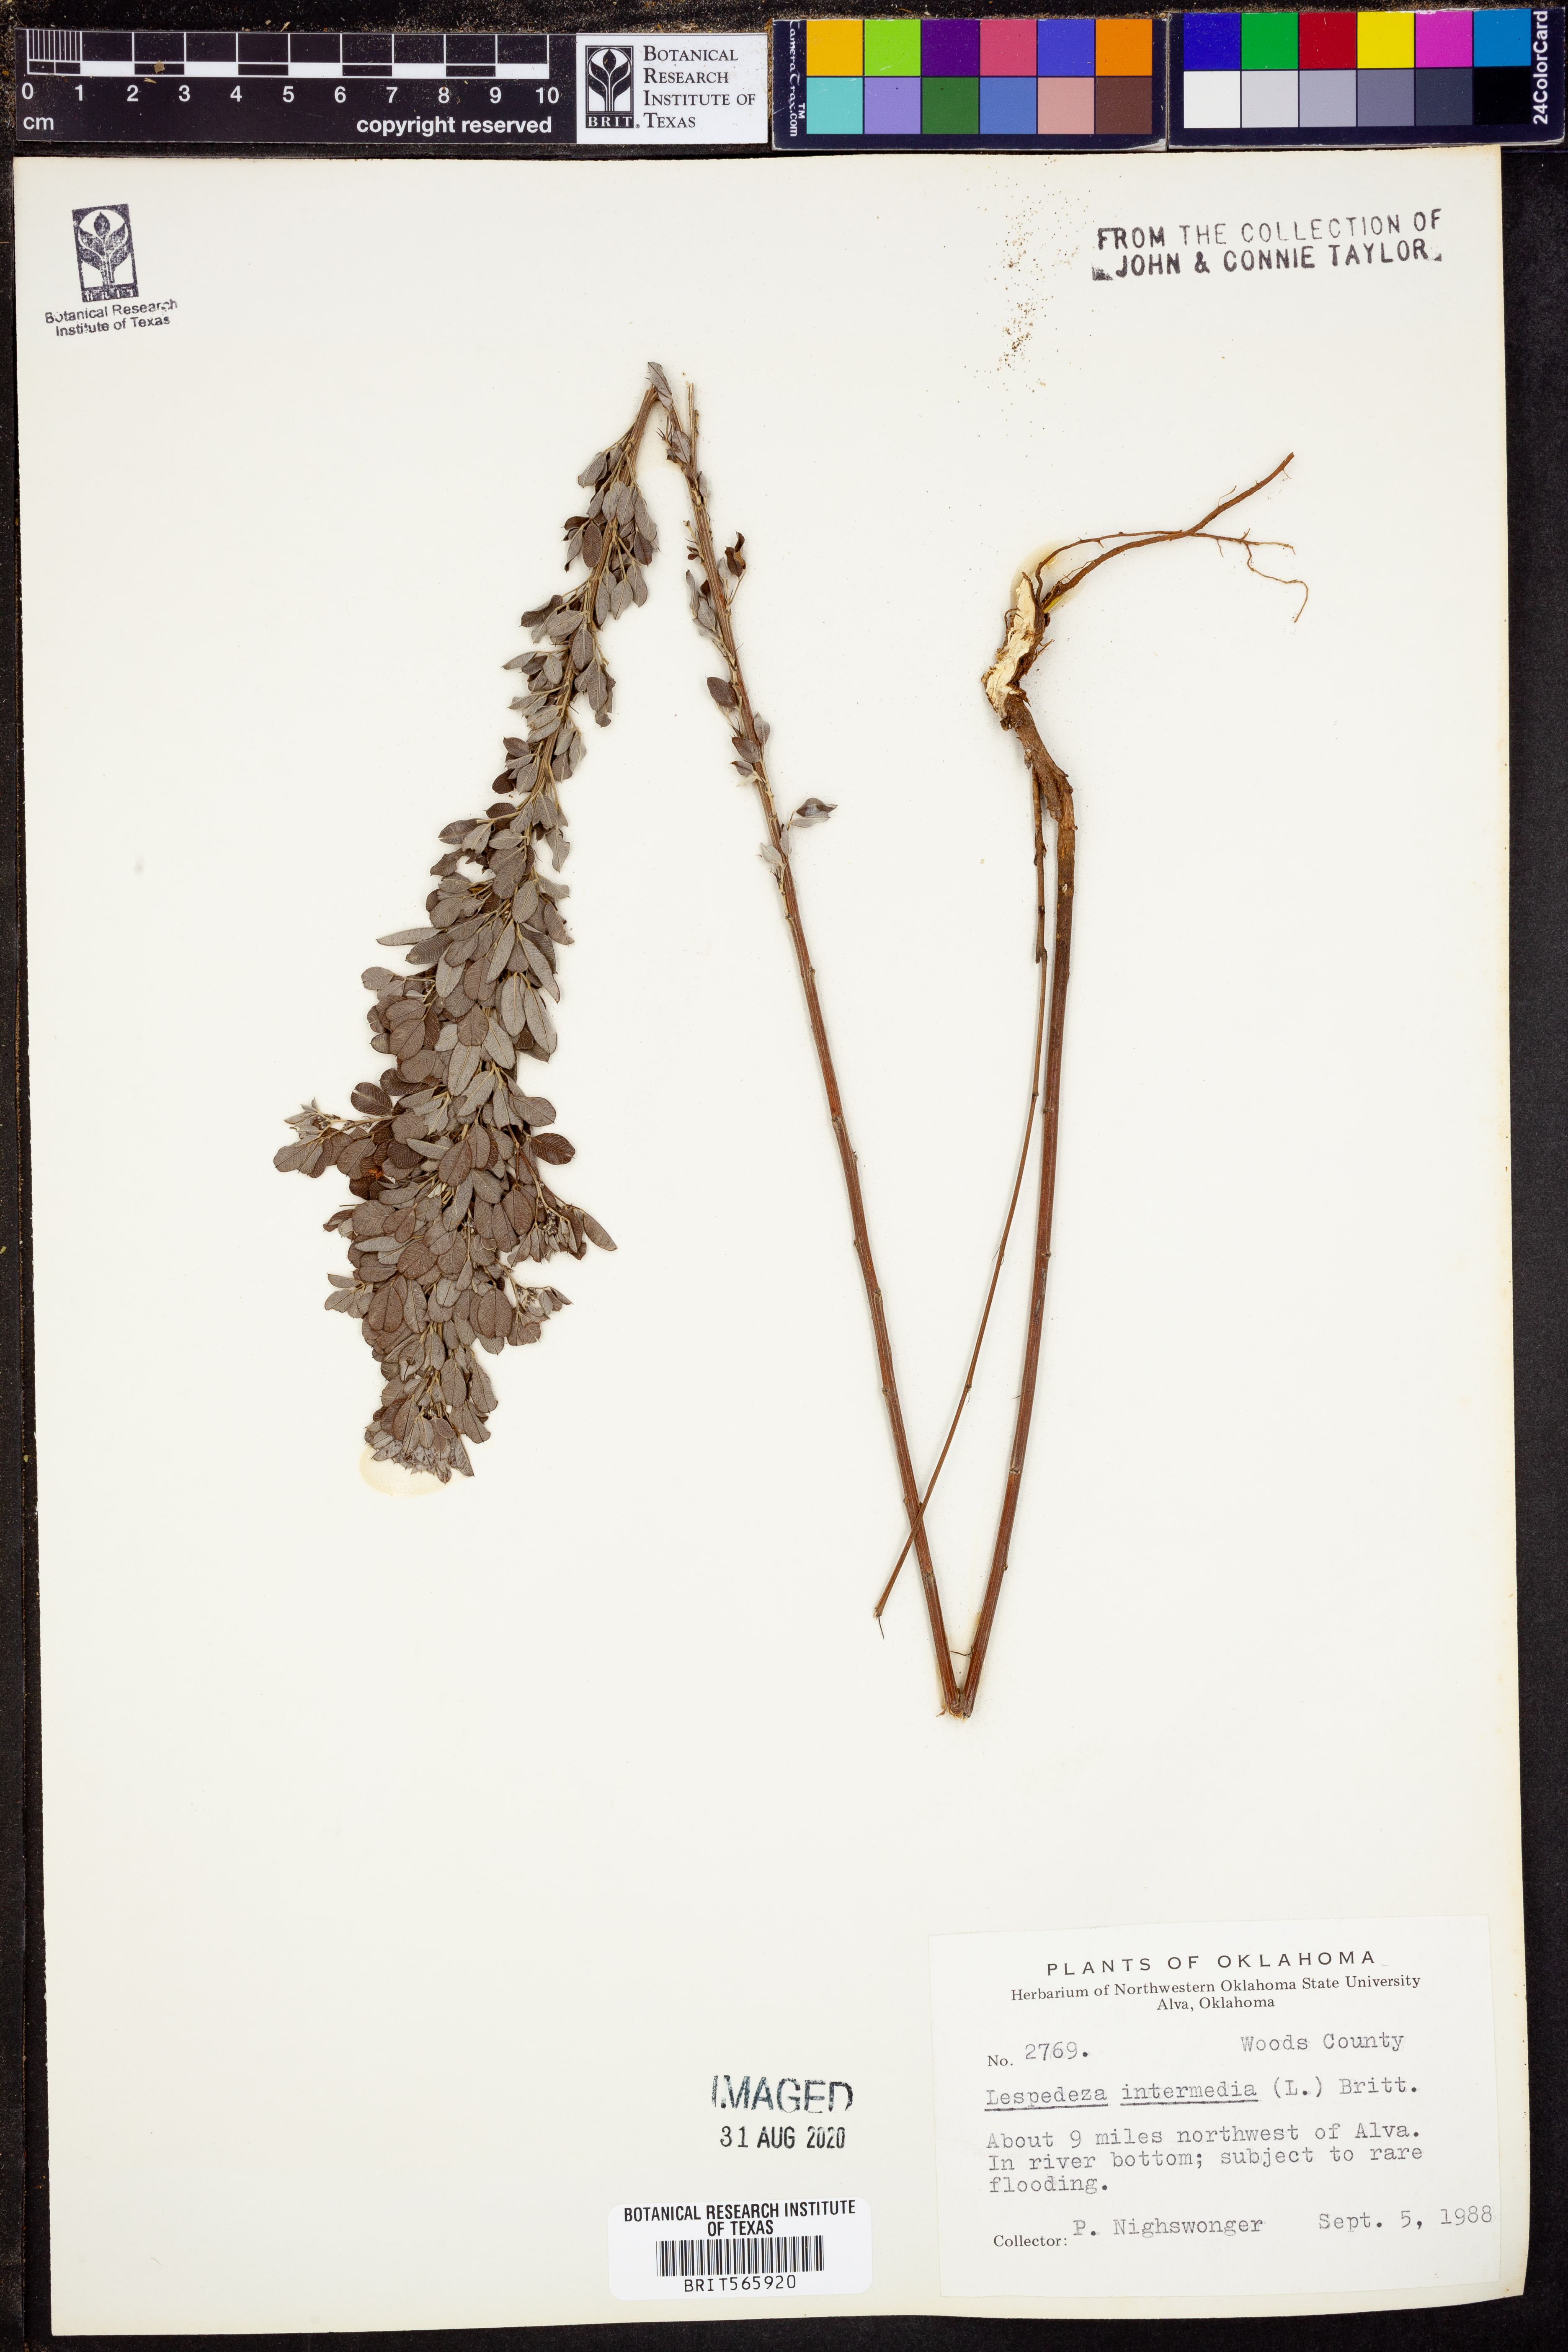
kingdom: Plantae
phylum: Tracheophyta
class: Magnoliopsida
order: Fabales
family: Fabaceae
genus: Lespedeza
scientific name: Lespedeza
